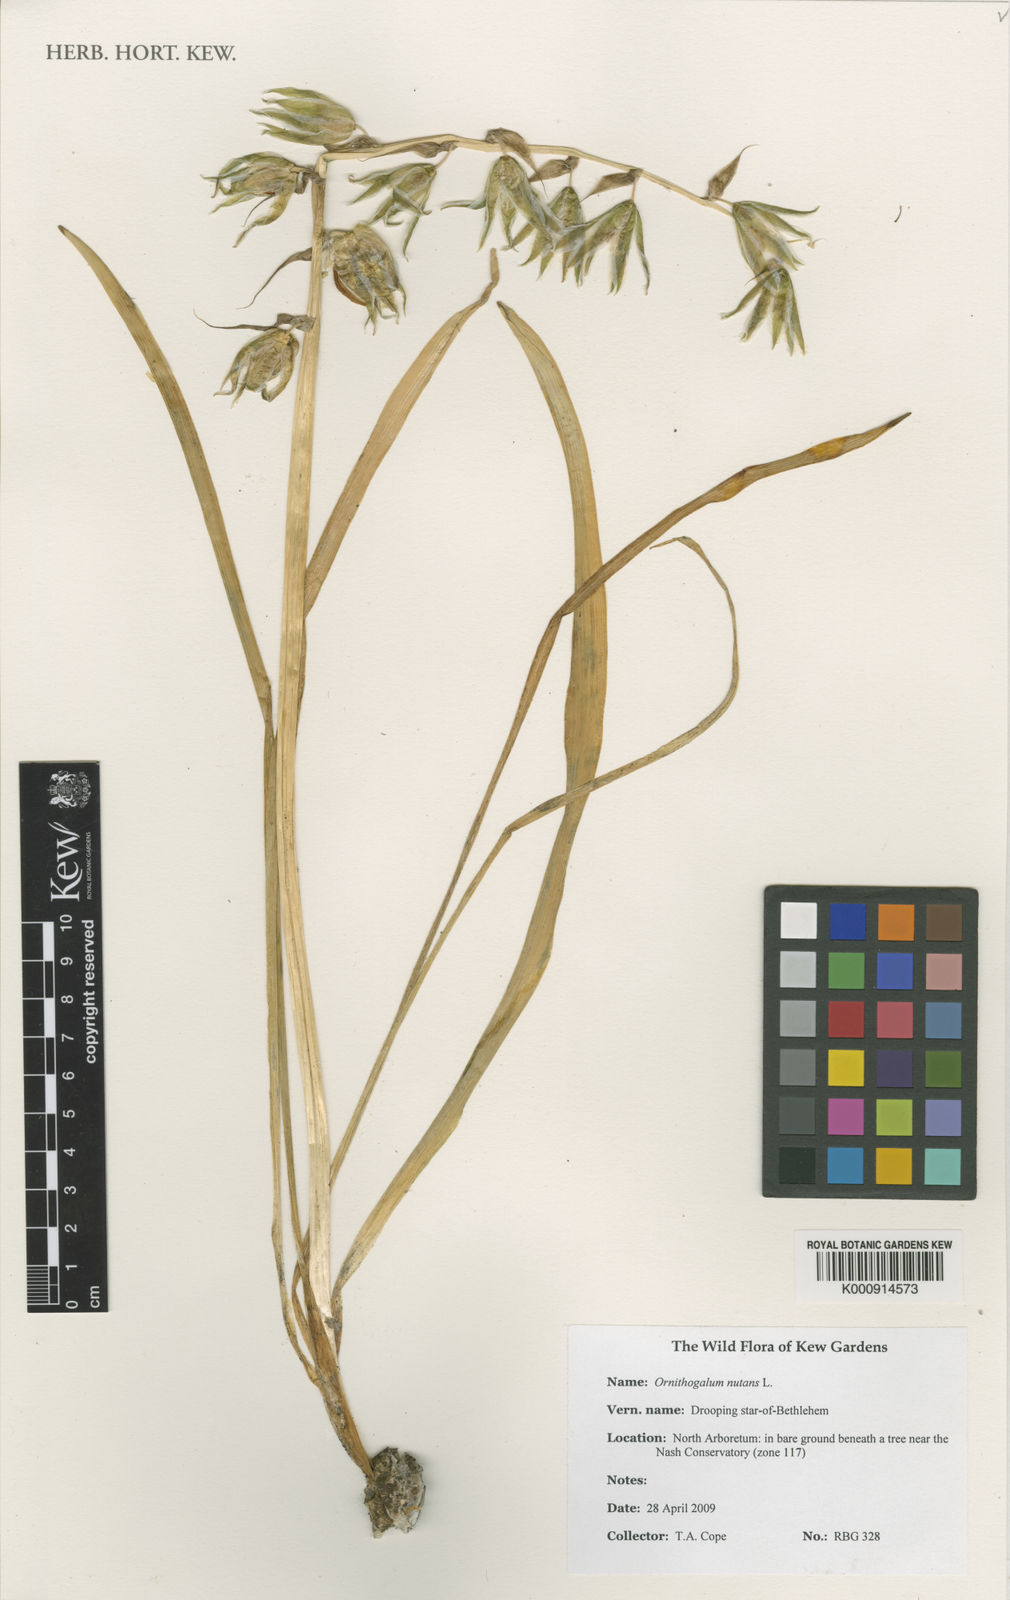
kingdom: Plantae
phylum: Tracheophyta
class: Liliopsida
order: Asparagales
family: Asparagaceae
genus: Ornithogalum
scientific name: Ornithogalum nutans
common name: Drooping star-of-bethlehem
